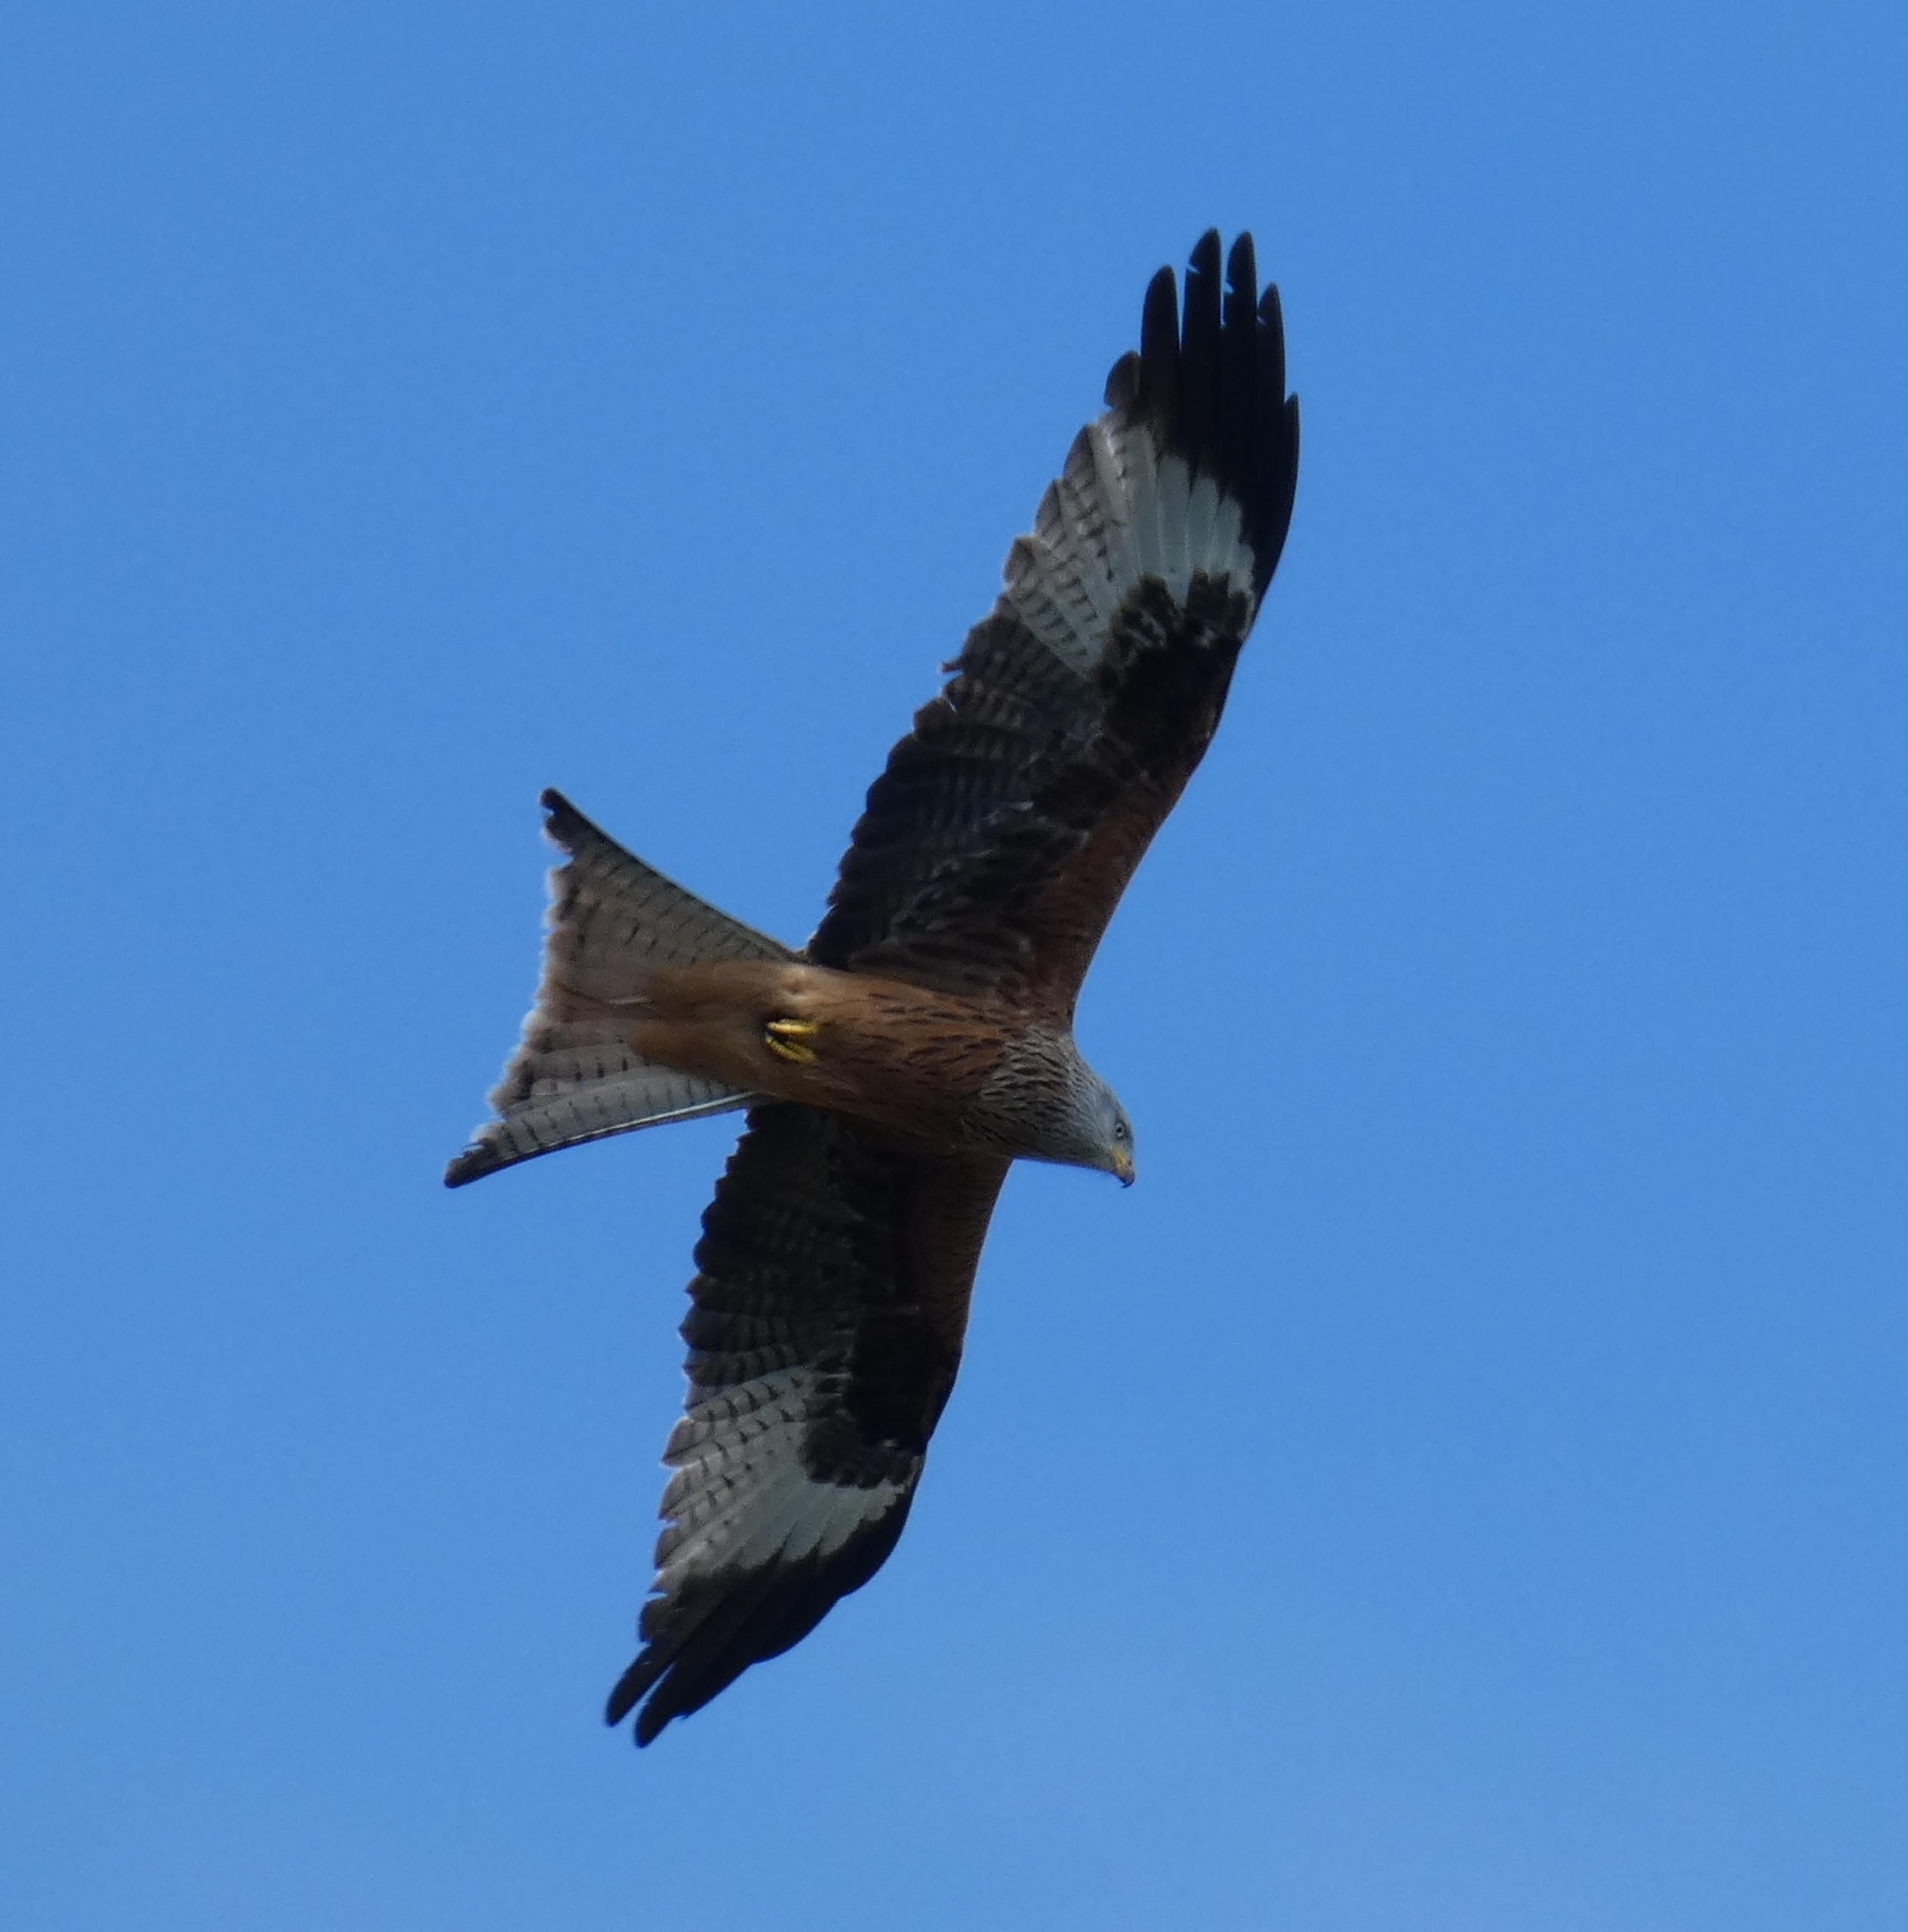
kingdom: Animalia
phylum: Chordata
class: Aves
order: Accipitriformes
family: Accipitridae
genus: Milvus
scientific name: Milvus milvus
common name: Rød glente
